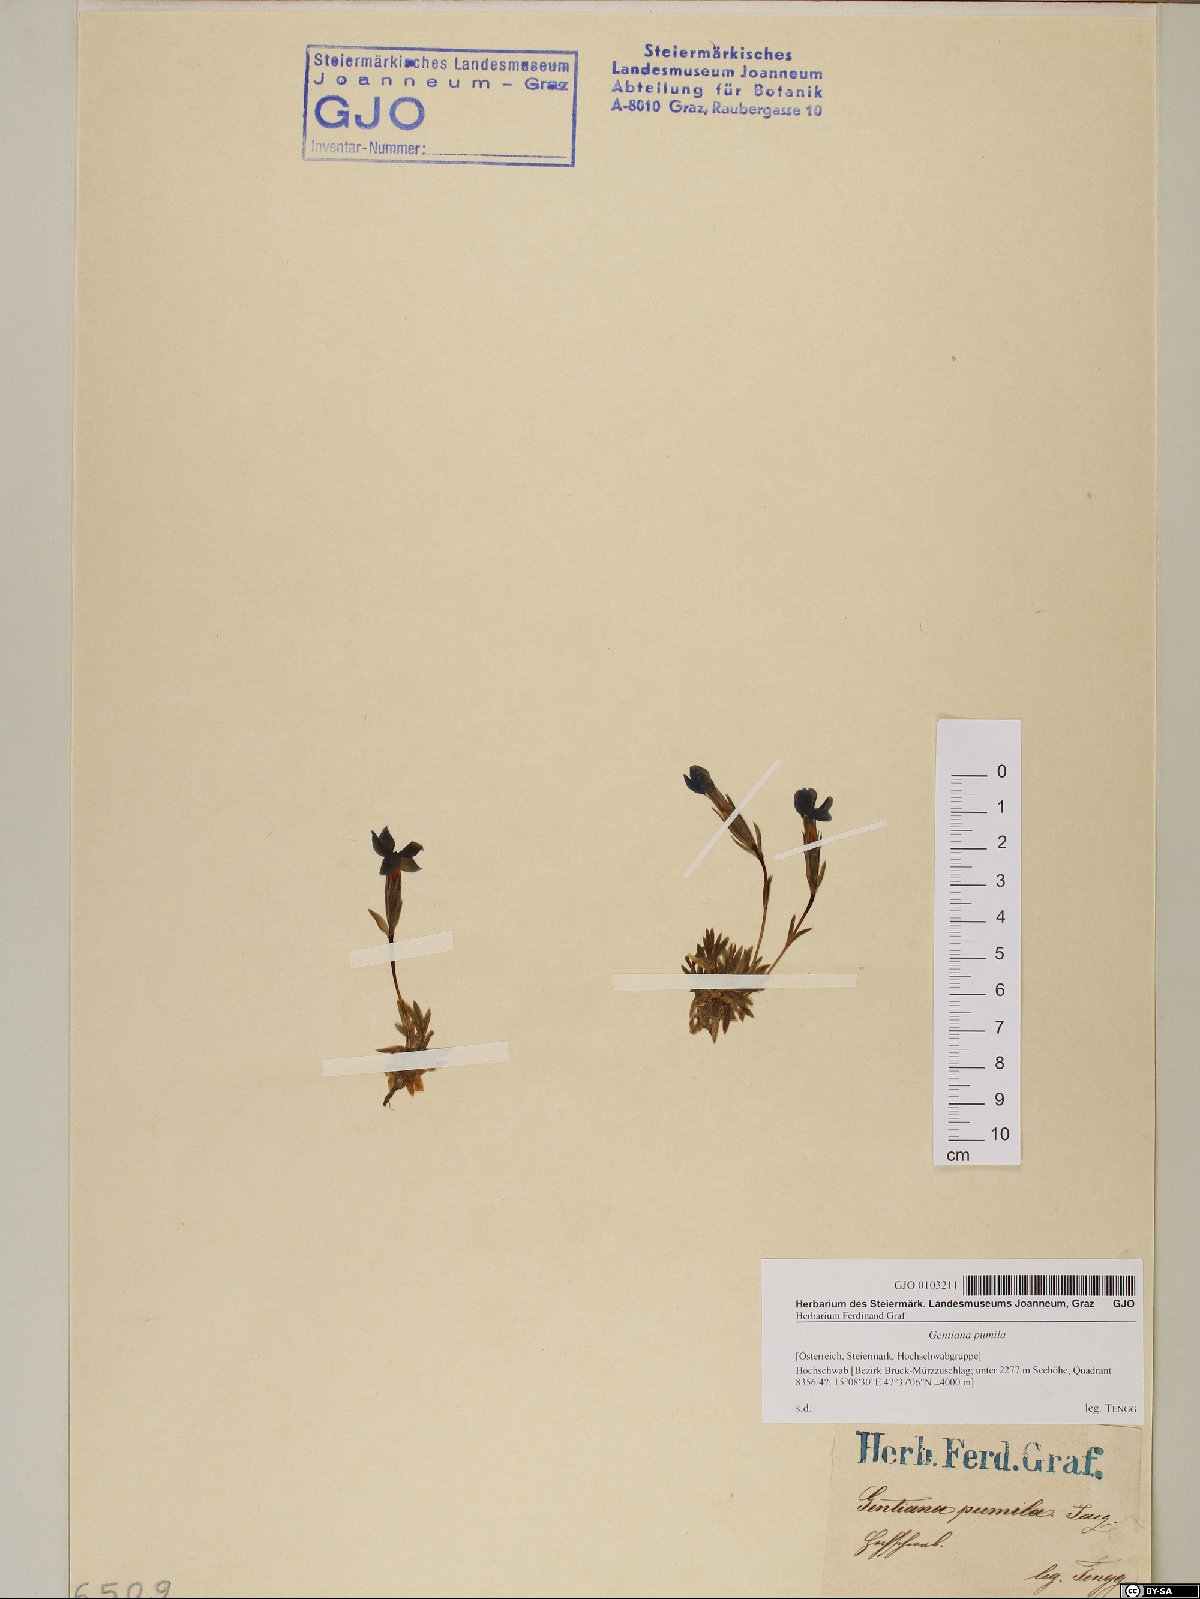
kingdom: Plantae
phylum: Tracheophyta
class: Magnoliopsida
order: Gentianales
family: Gentianaceae
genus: Gentiana
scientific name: Gentiana pumila
